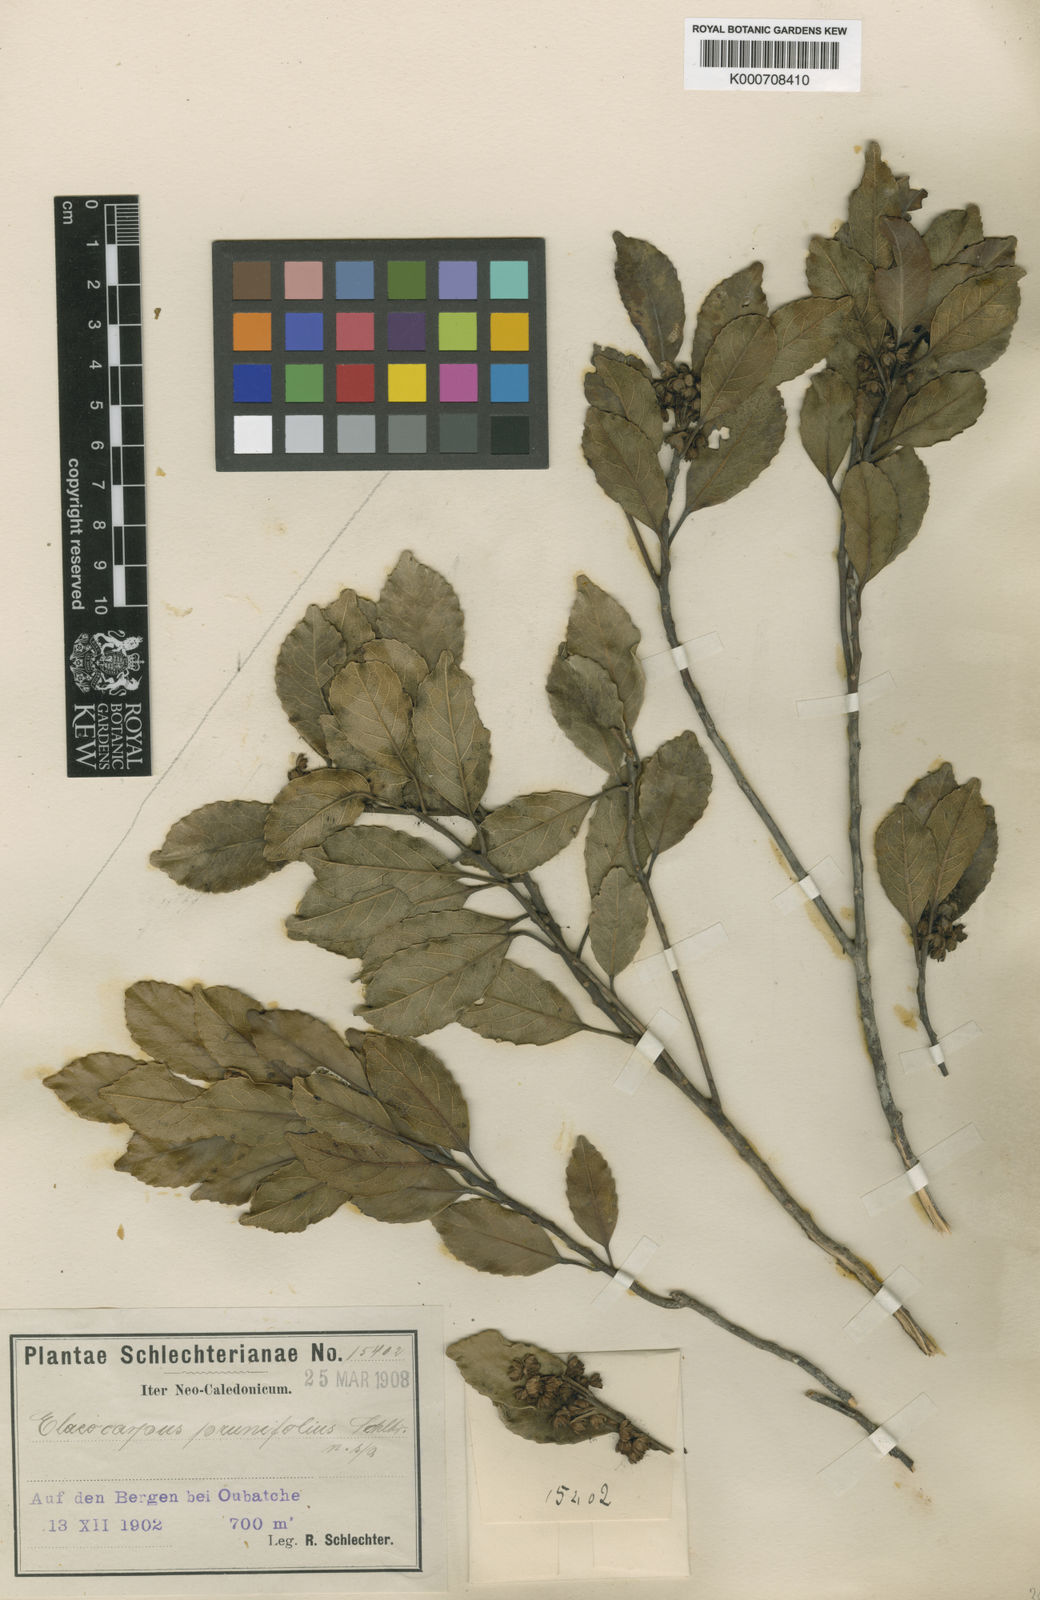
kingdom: Plantae
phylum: Tracheophyta
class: Magnoliopsida
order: Oxalidales
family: Elaeocarpaceae
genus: Elaeocarpus
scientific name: Elaeocarpus dognyensis
